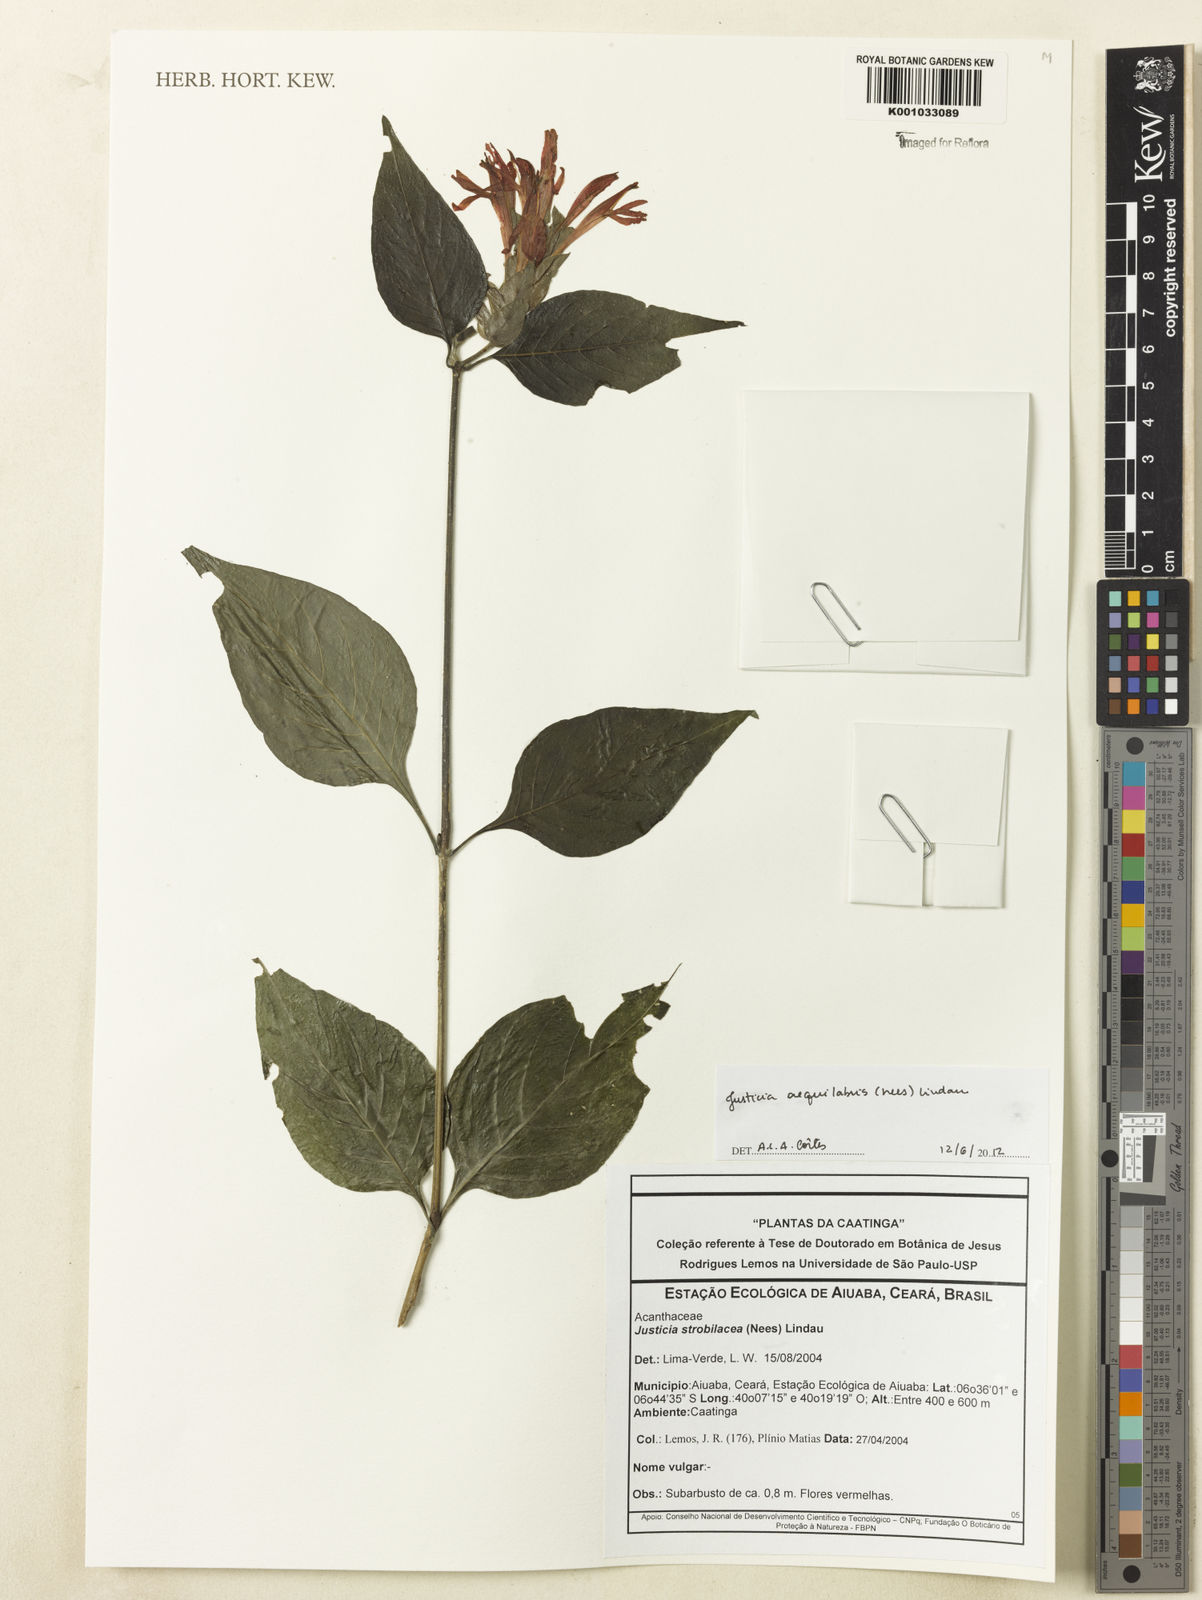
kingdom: Plantae
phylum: Tracheophyta
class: Magnoliopsida
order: Lamiales
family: Acanthaceae
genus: Justicia
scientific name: Justicia aequalis
